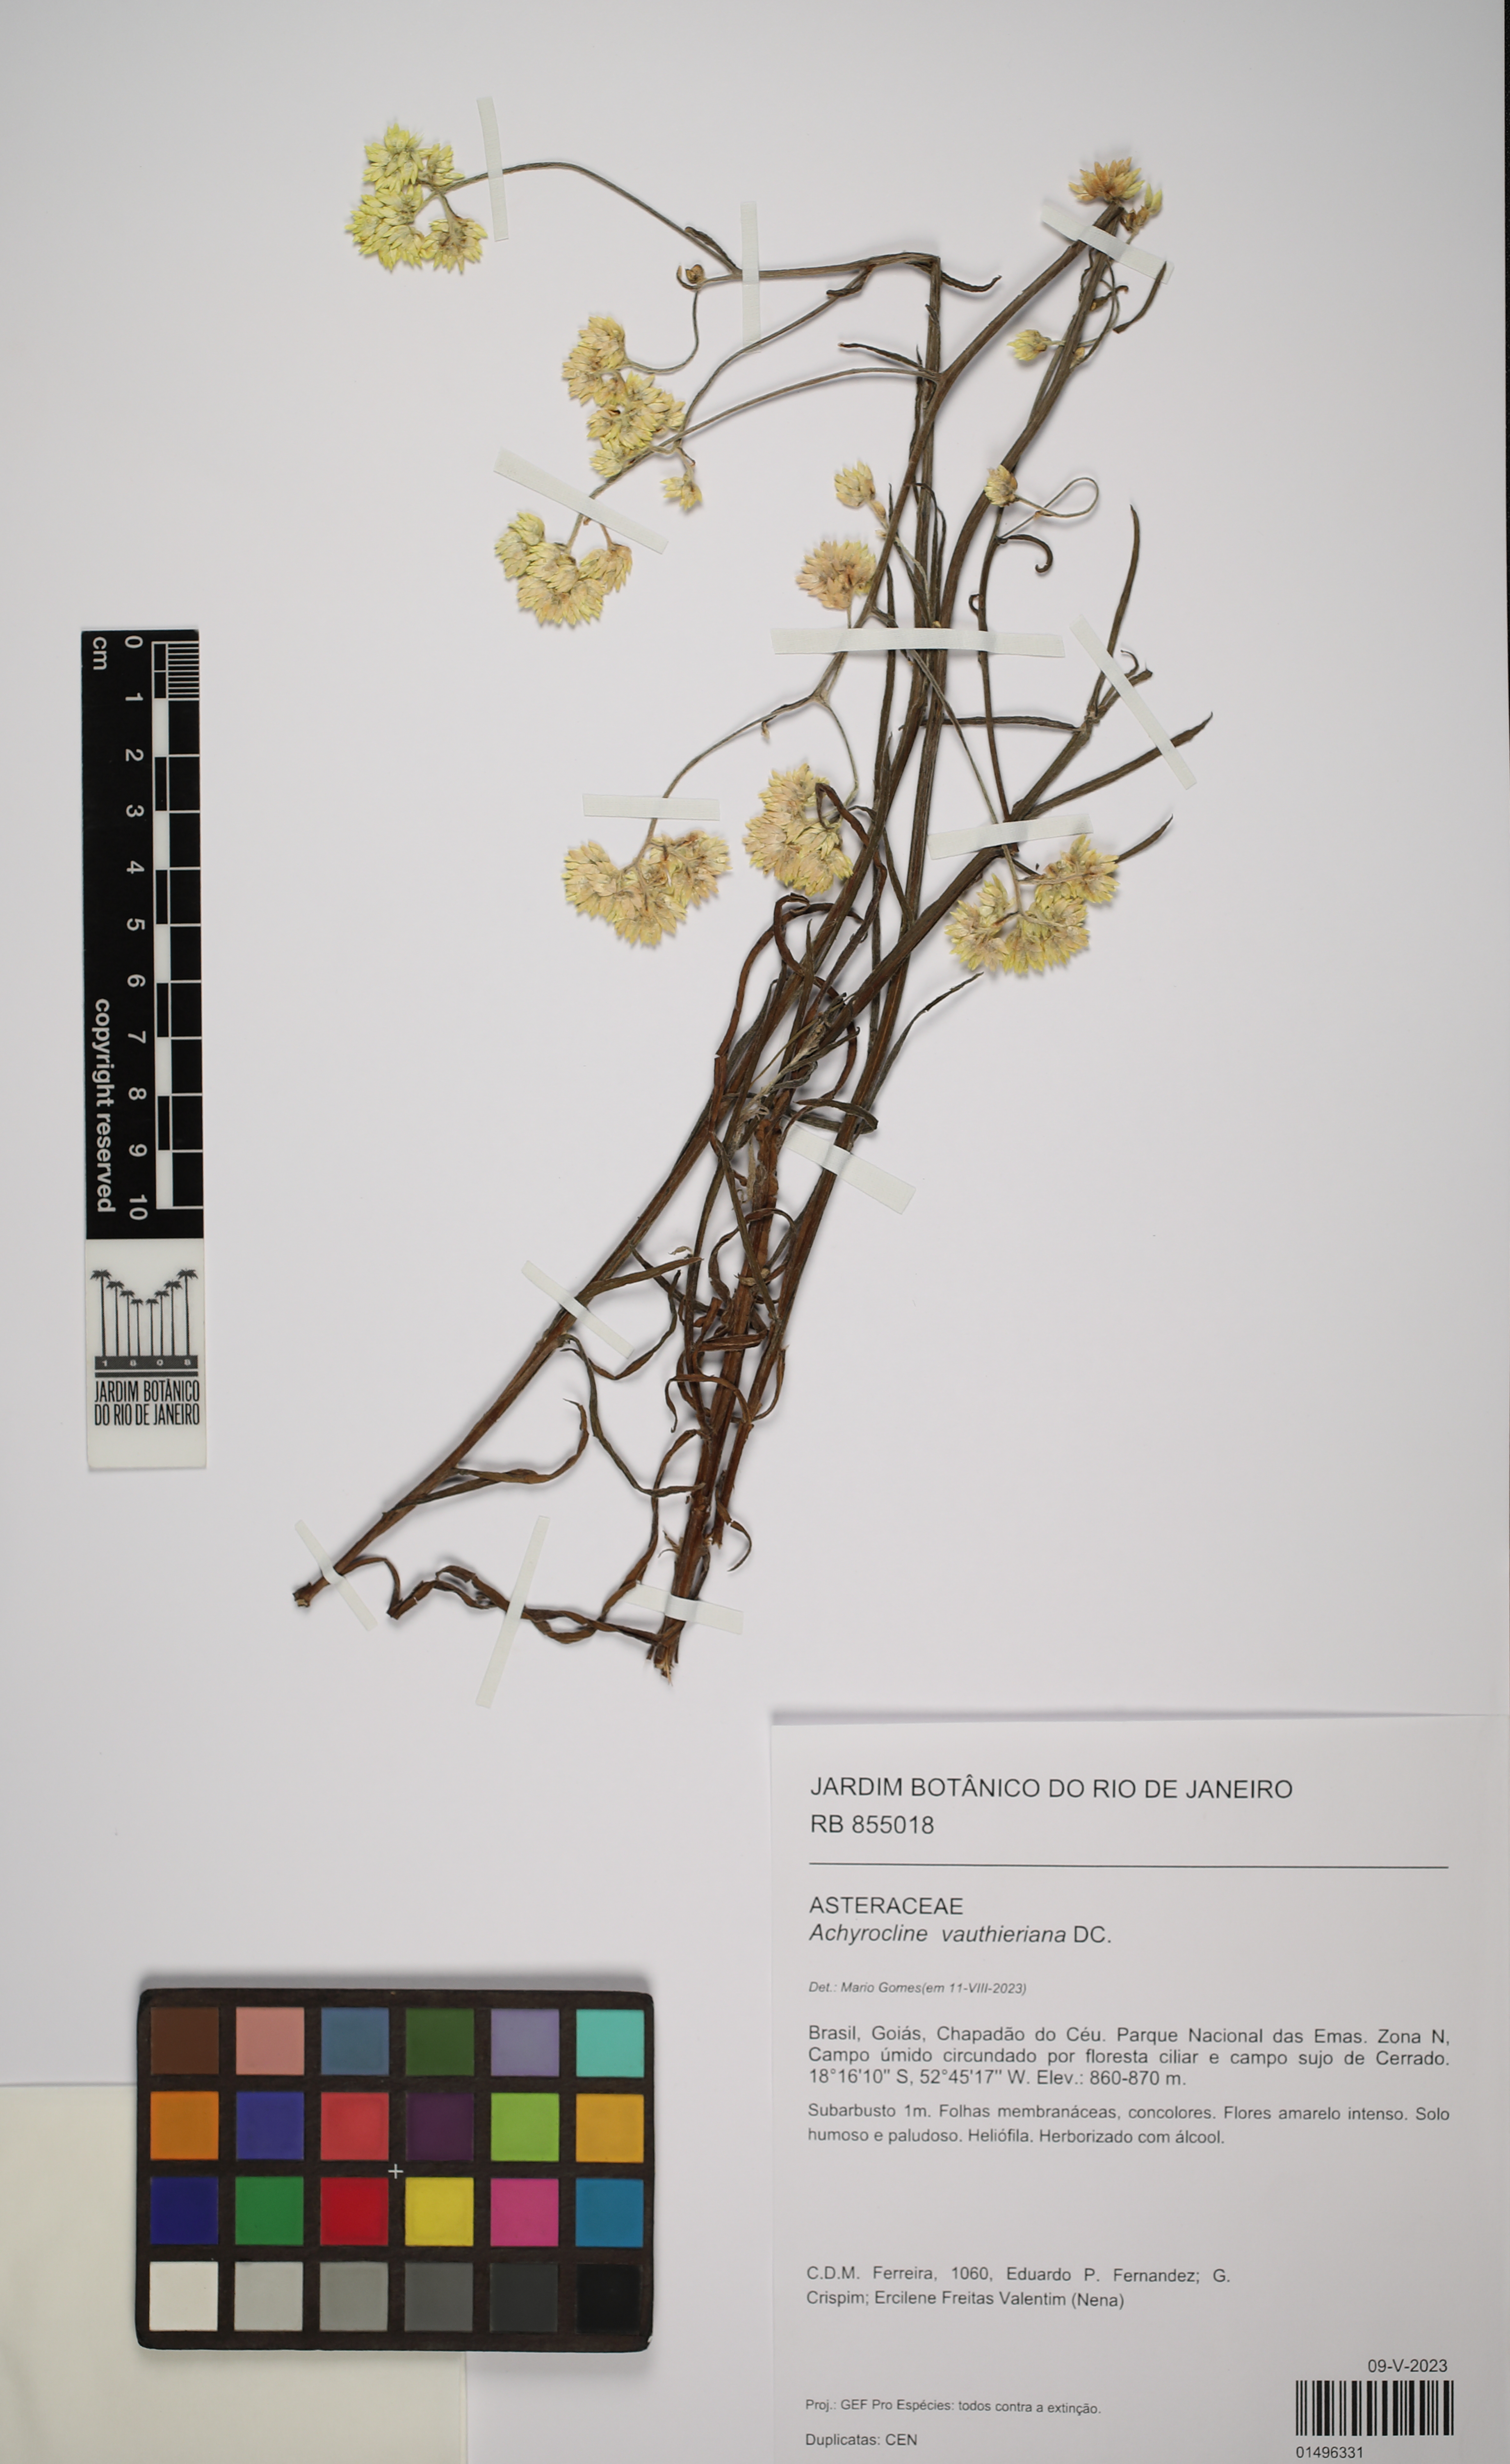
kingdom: Plantae
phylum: Tracheophyta
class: Magnoliopsida
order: Asterales
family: Asteraceae
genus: Achyrocline
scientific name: Achyrocline vauthieriana
